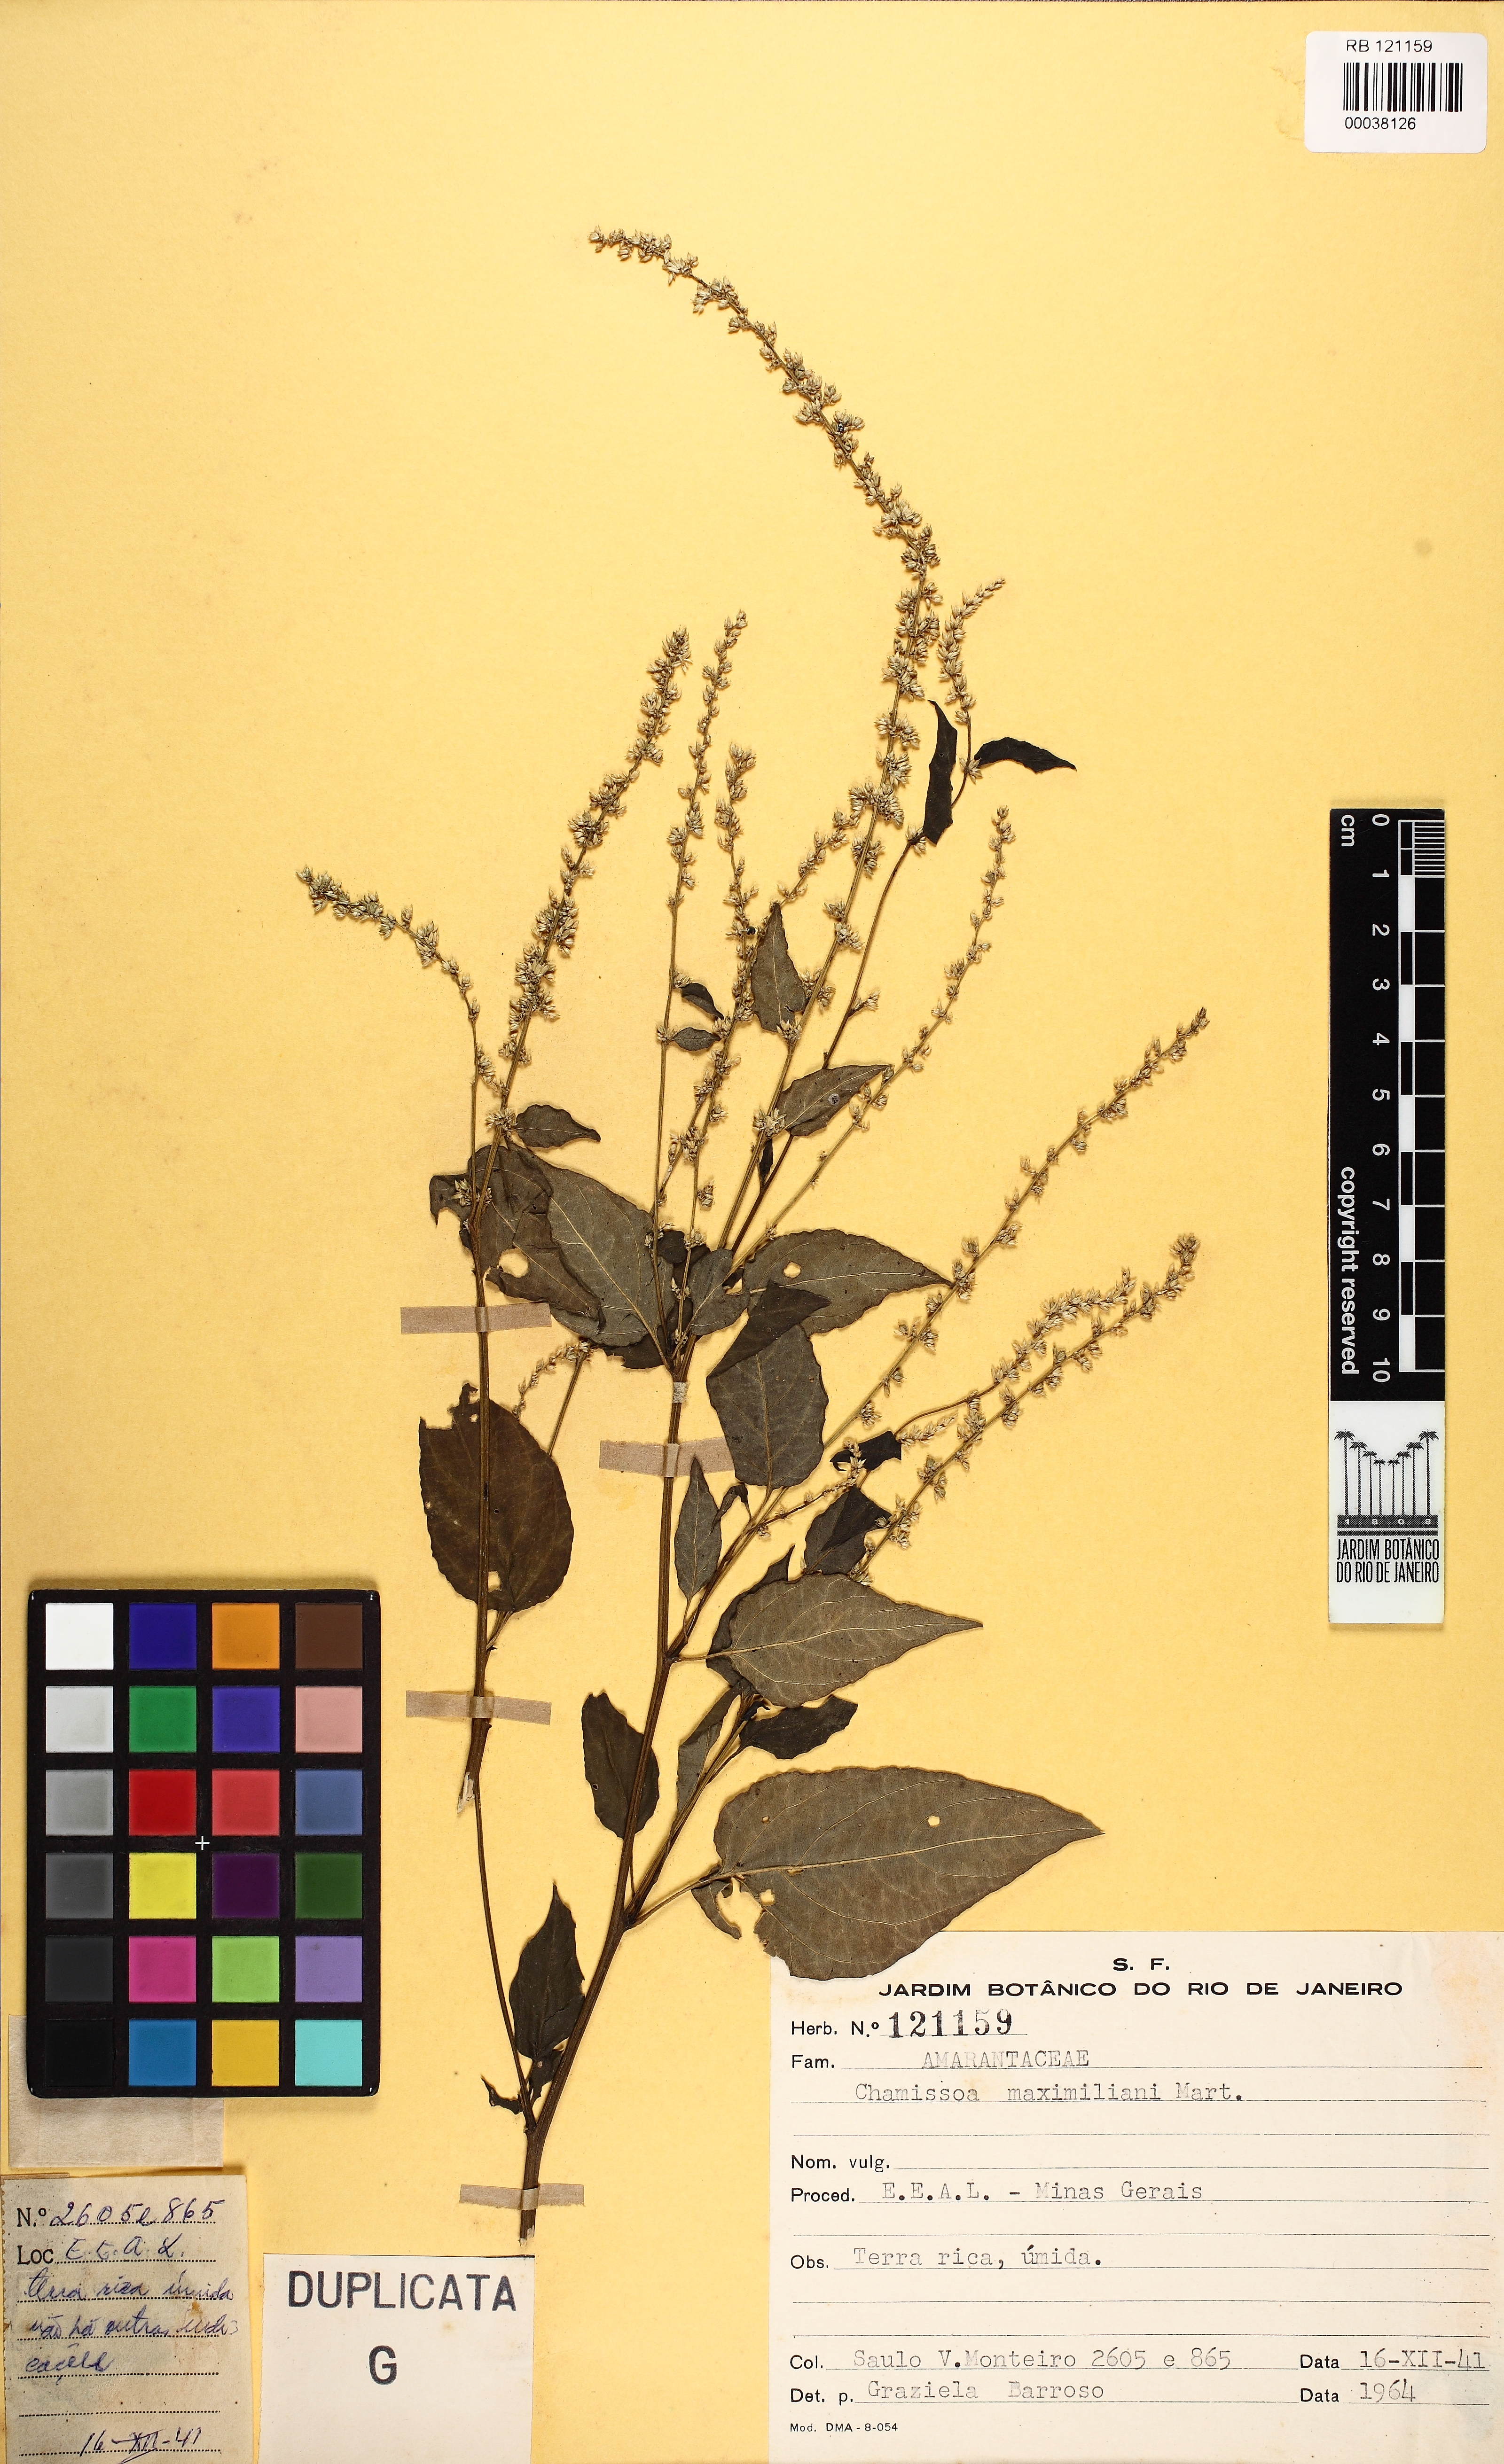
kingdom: Plantae
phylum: Tracheophyta
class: Magnoliopsida
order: Caryophyllales
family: Amaranthaceae
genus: Chamissoa
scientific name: Chamissoa maximiliani
